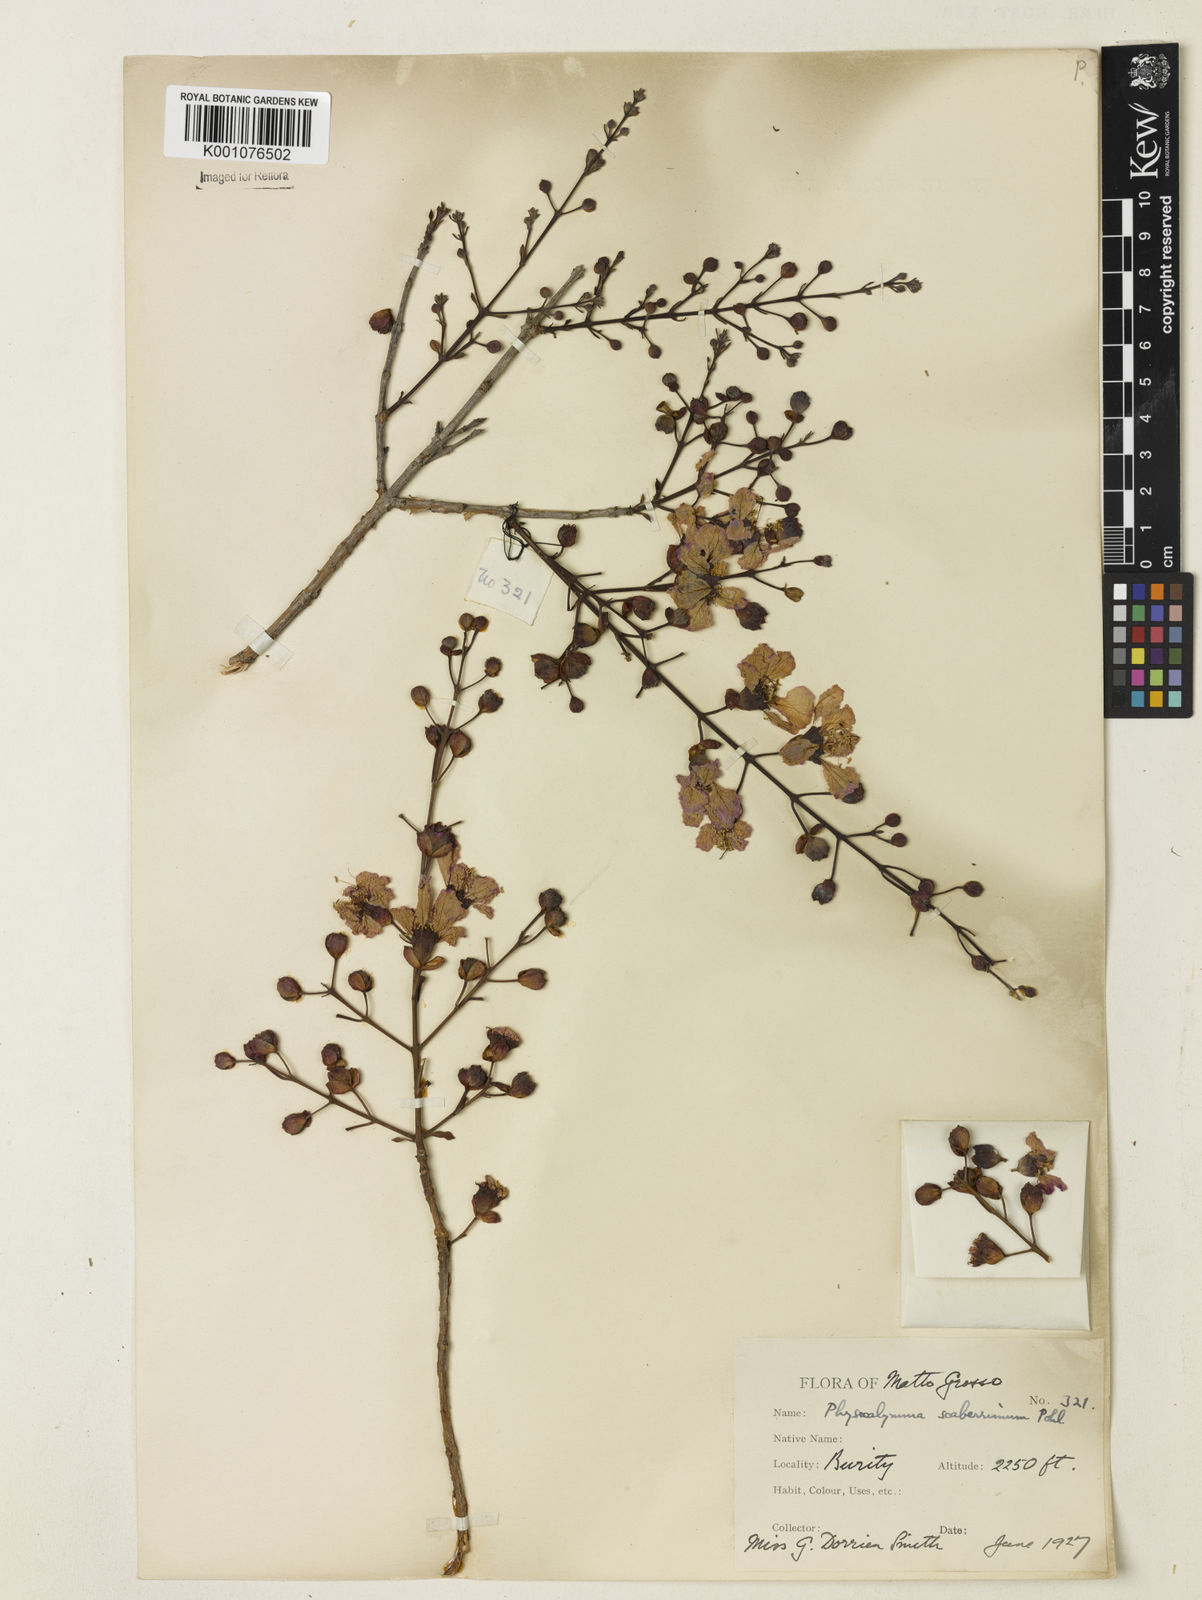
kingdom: Plantae
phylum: Tracheophyta
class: Magnoliopsida
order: Myrtales
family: Lythraceae
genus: Physocalymma
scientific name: Physocalymma scaberrimum
